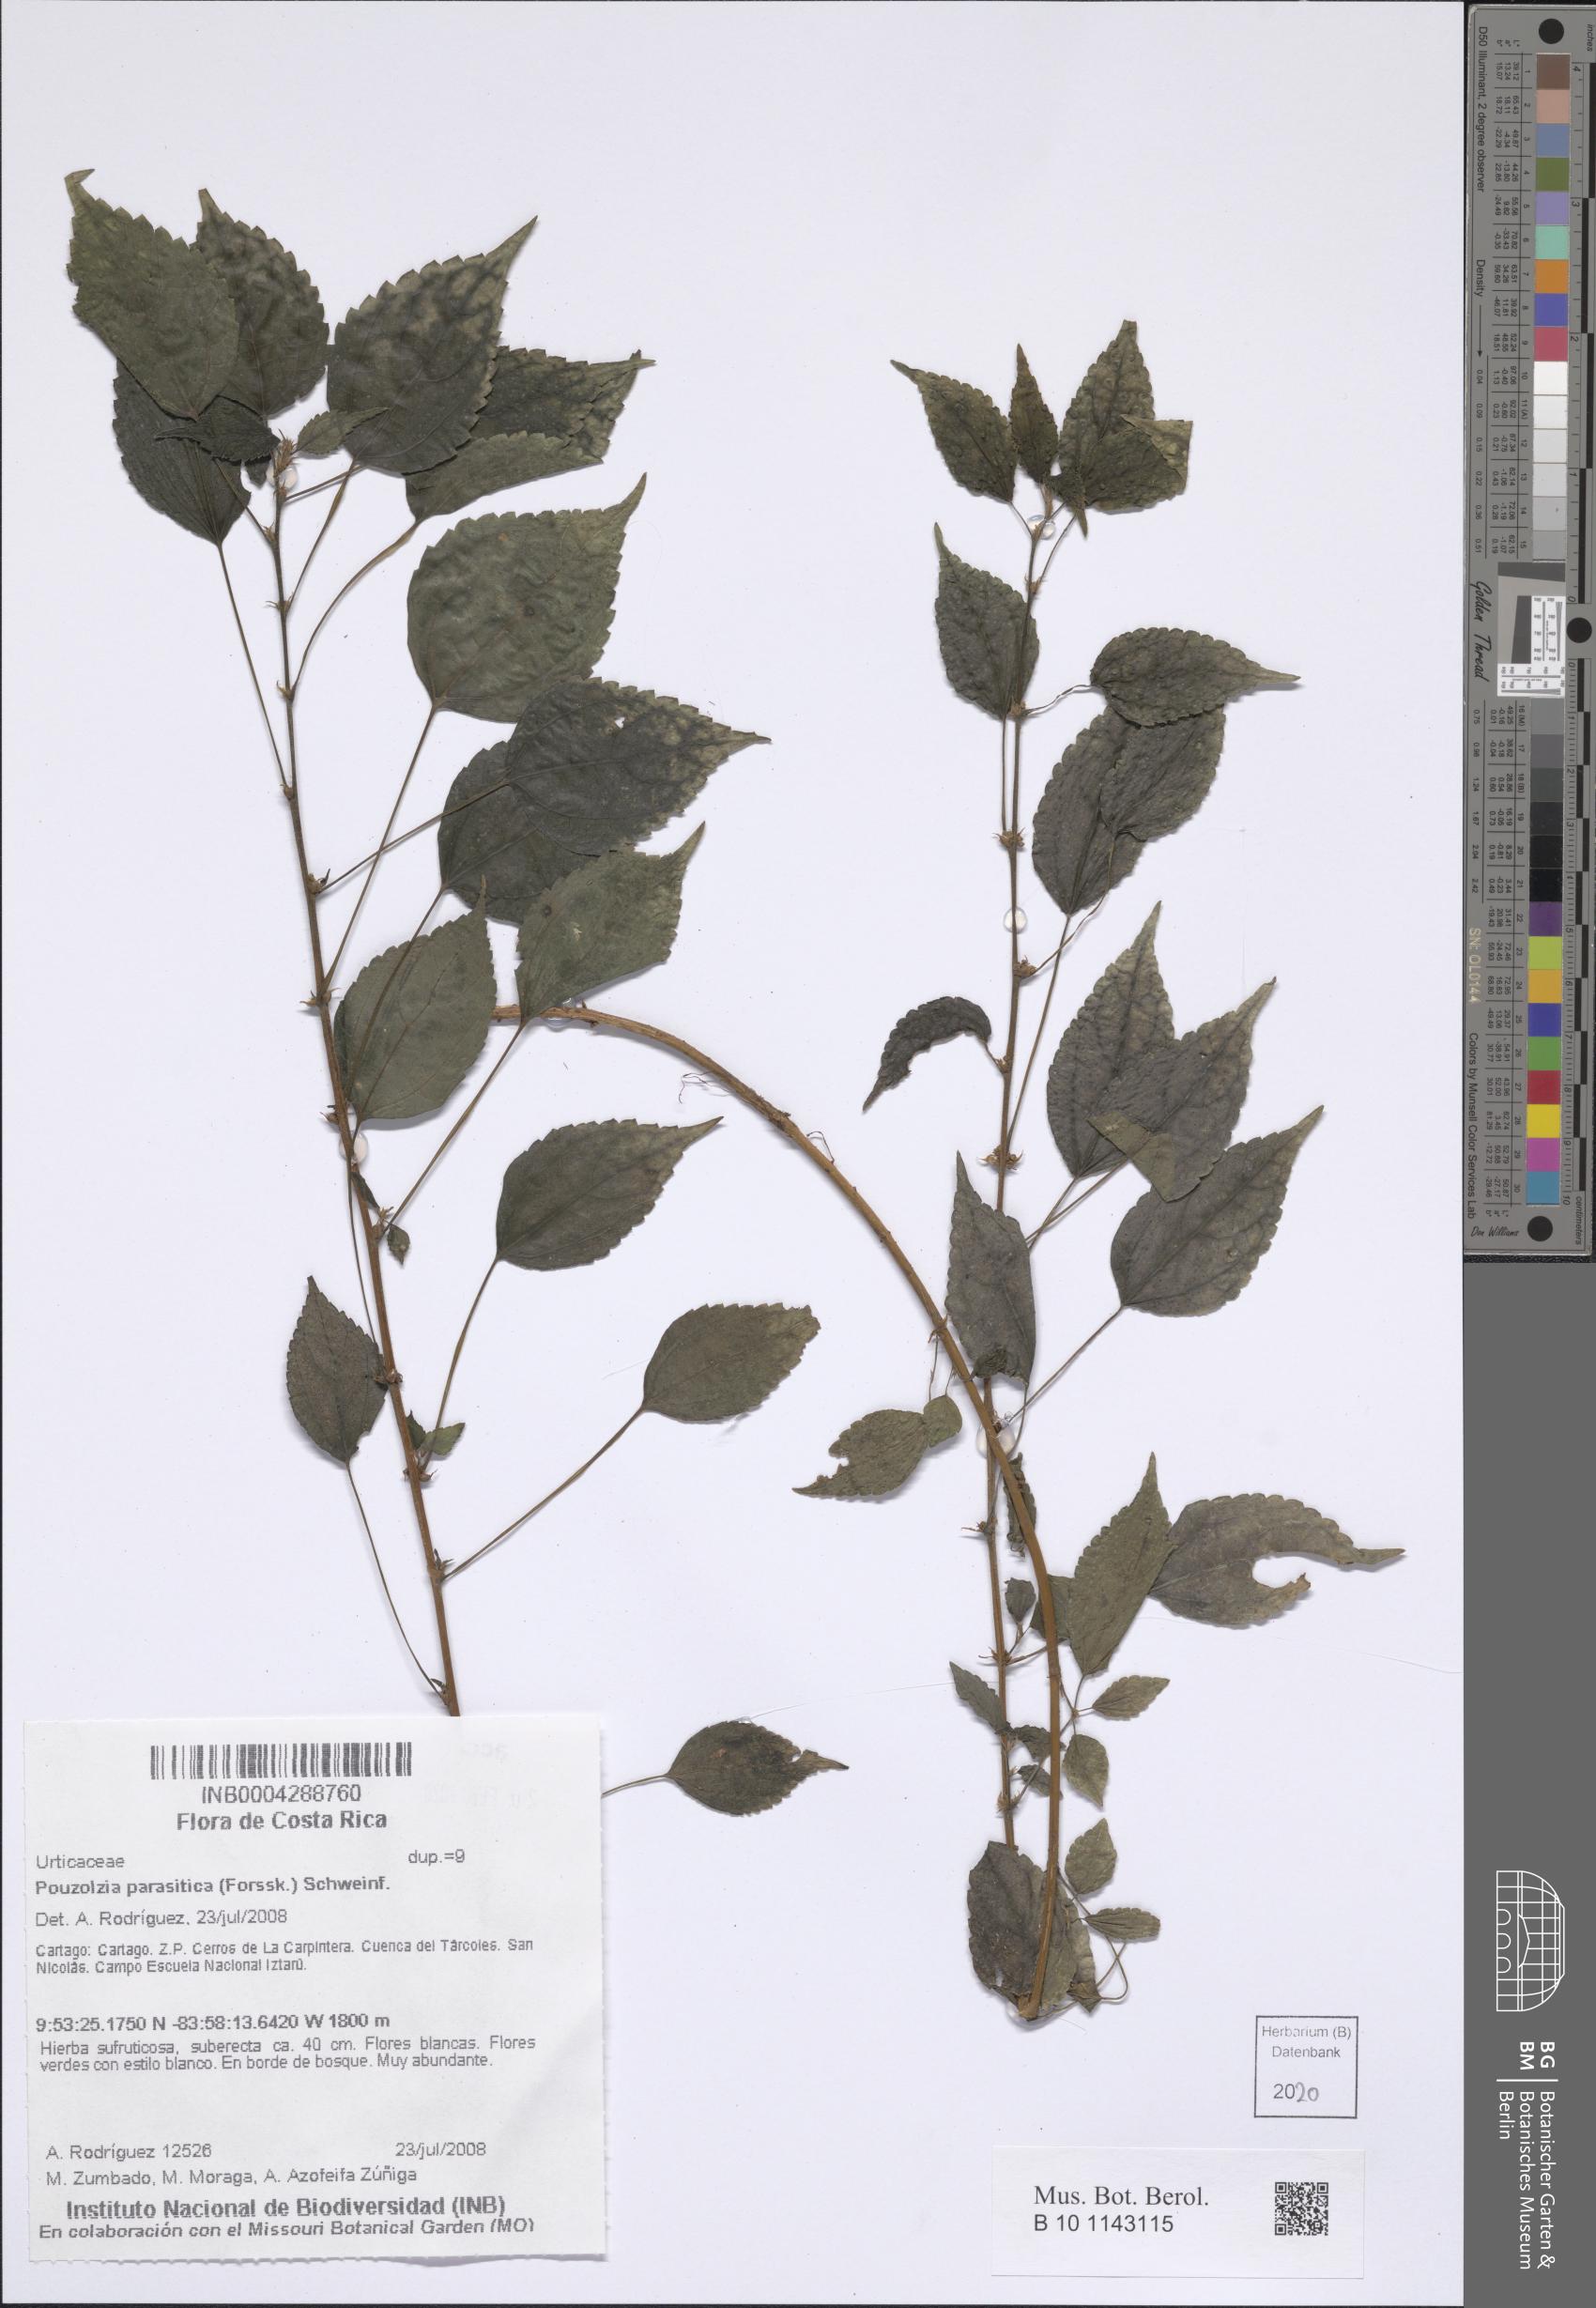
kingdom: Plantae
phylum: Tracheophyta
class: Magnoliopsida
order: Rosales
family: Urticaceae
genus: Pouzolzia
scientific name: Pouzolzia parasitica
